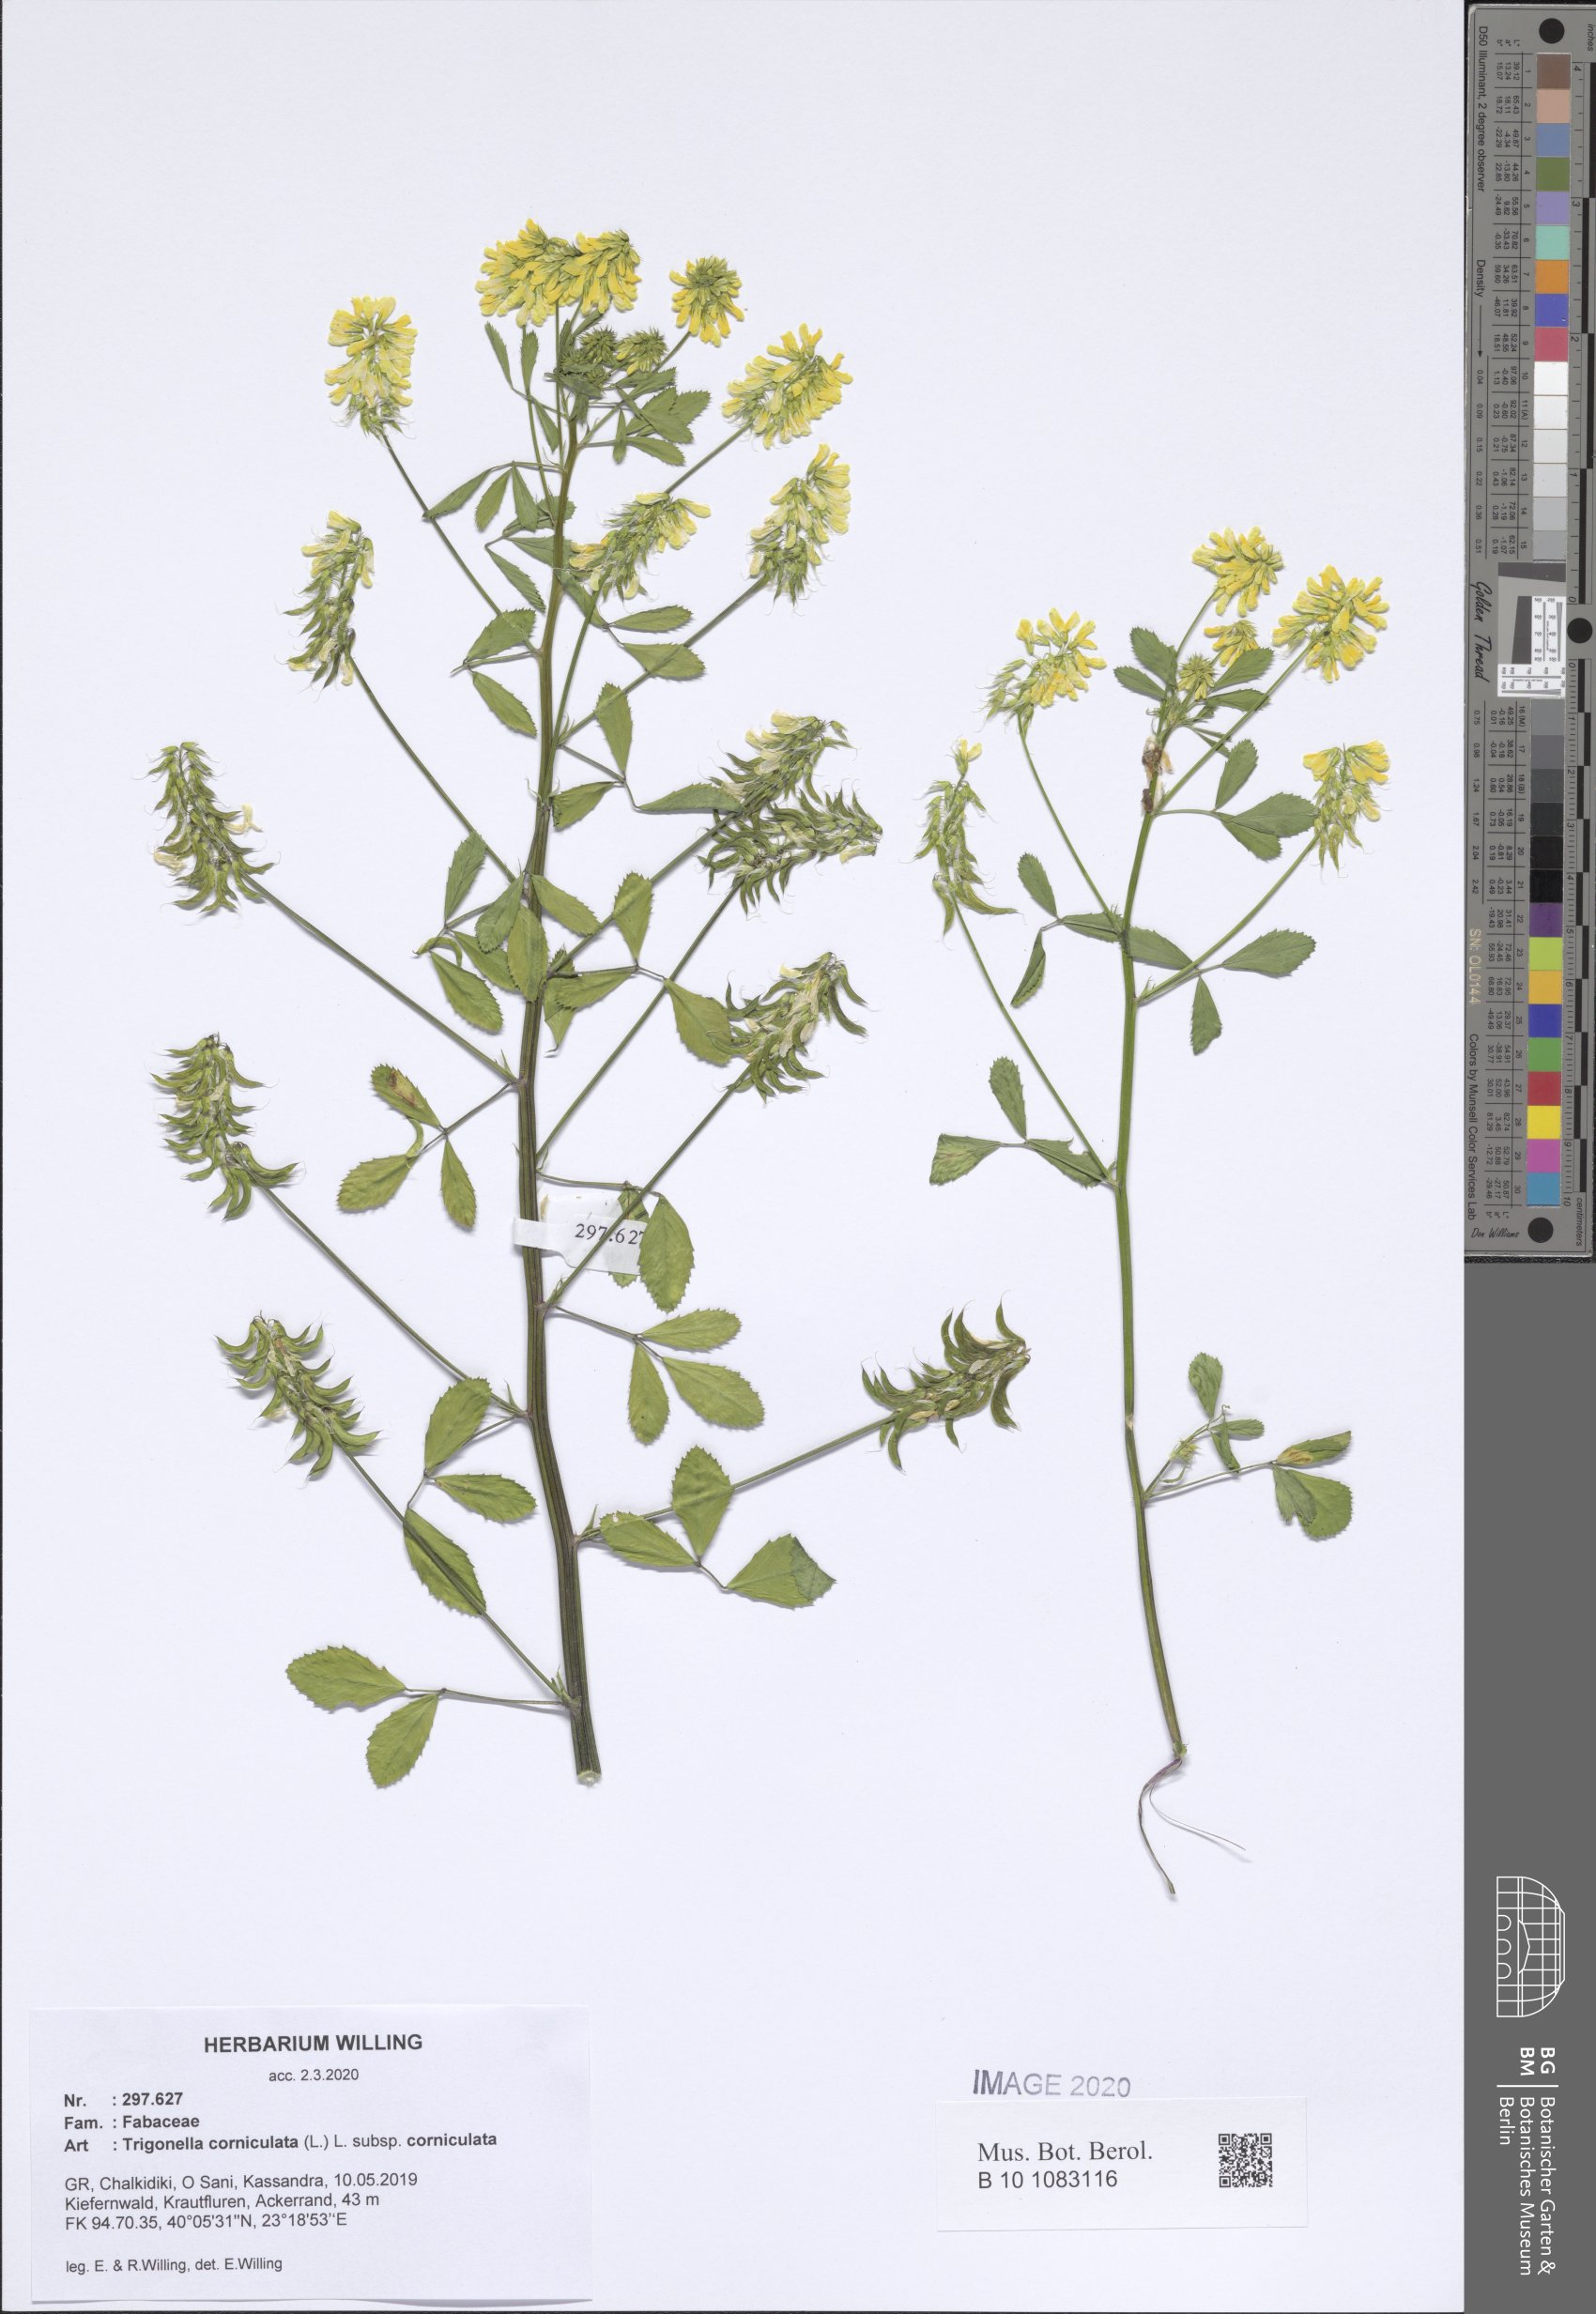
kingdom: Plantae
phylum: Tracheophyta
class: Magnoliopsida
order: Fabales
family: Fabaceae
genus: Trigonella
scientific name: Trigonella corniculata
